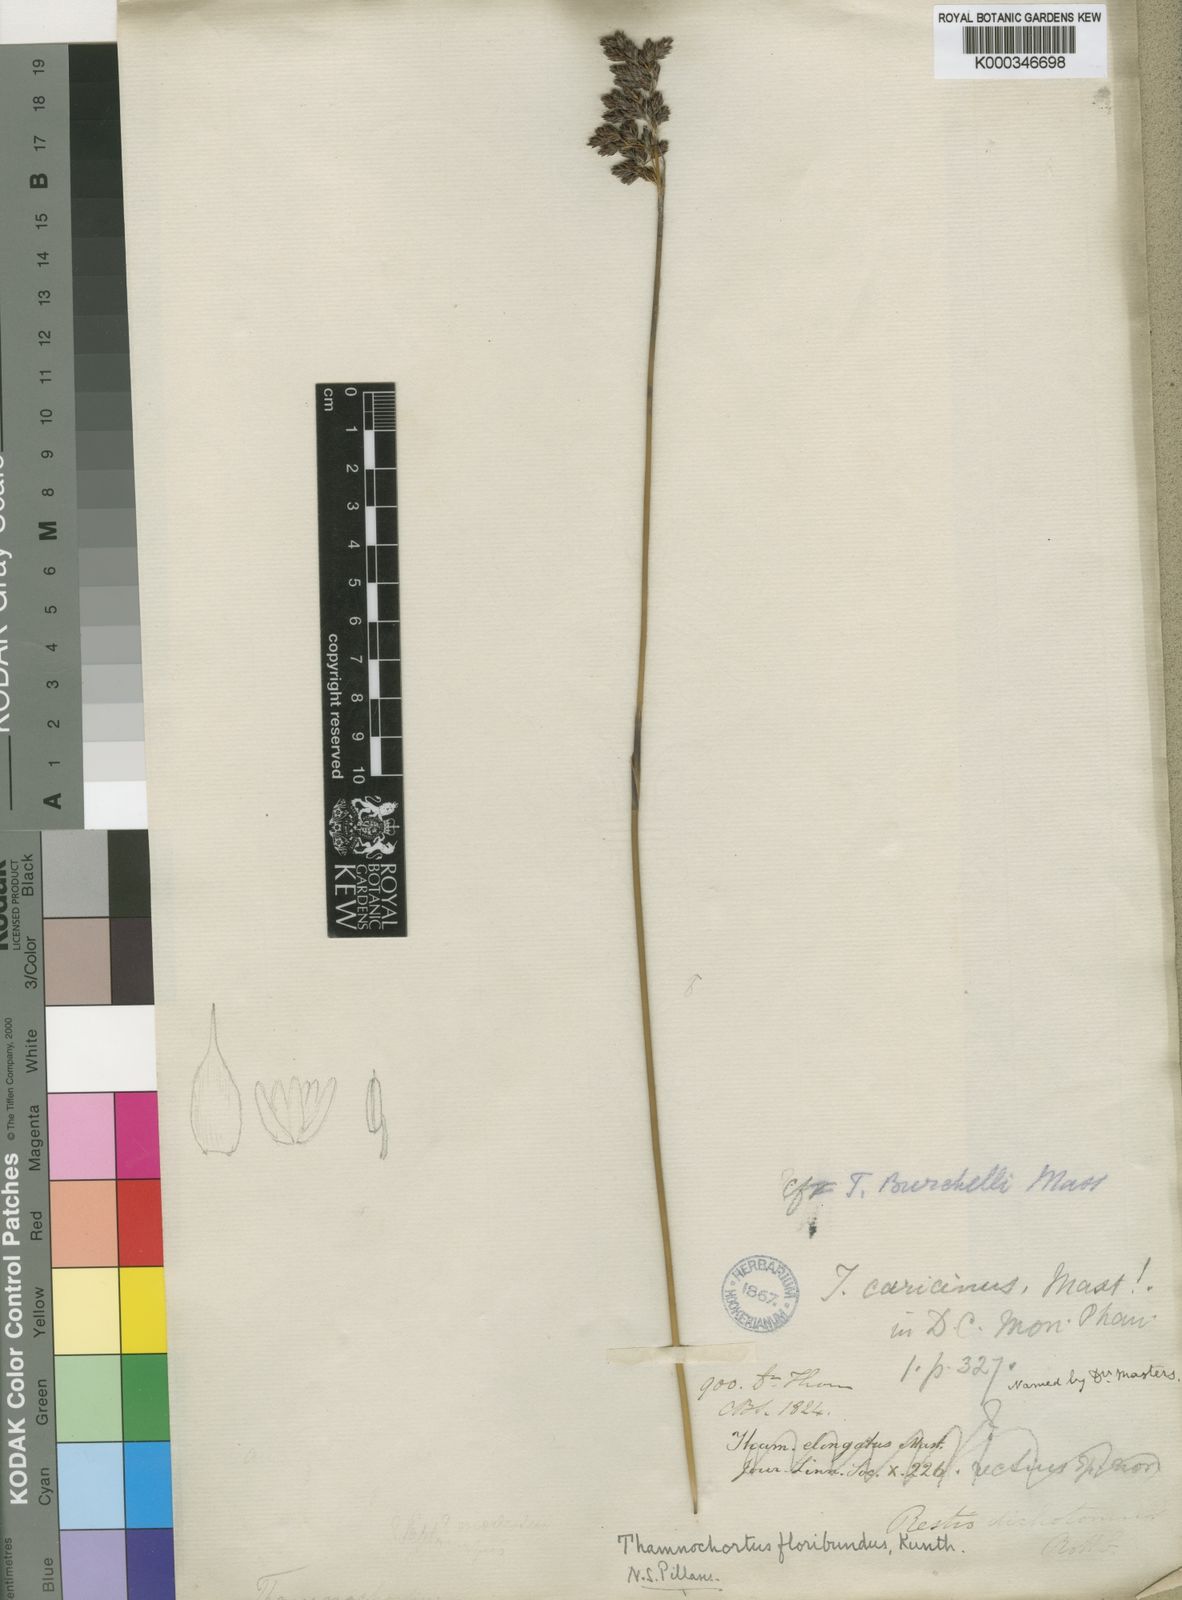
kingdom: Plantae
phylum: Tracheophyta
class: Liliopsida
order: Poales
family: Restionaceae
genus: Thamnochortus
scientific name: Thamnochortus erectus
